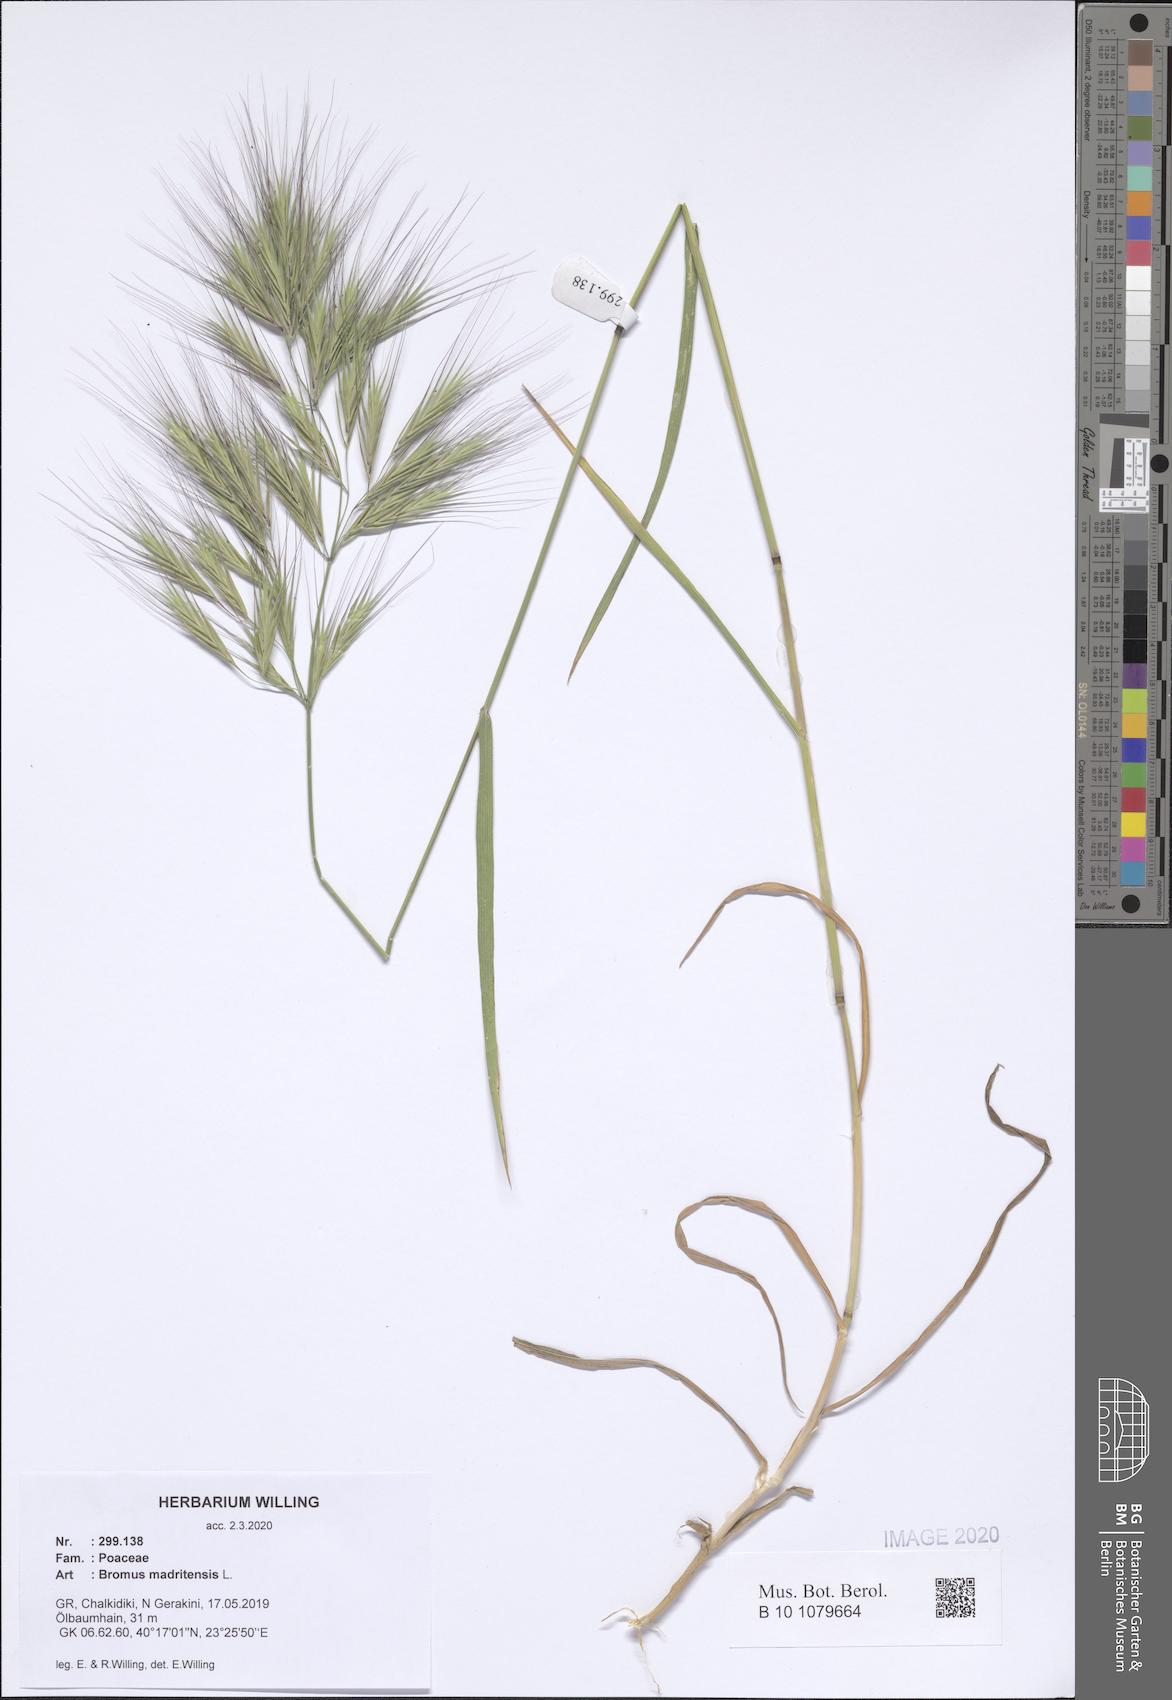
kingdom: Plantae
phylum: Tracheophyta
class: Liliopsida
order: Poales
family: Poaceae
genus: Bromus
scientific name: Bromus madritensis
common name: Compact brome
